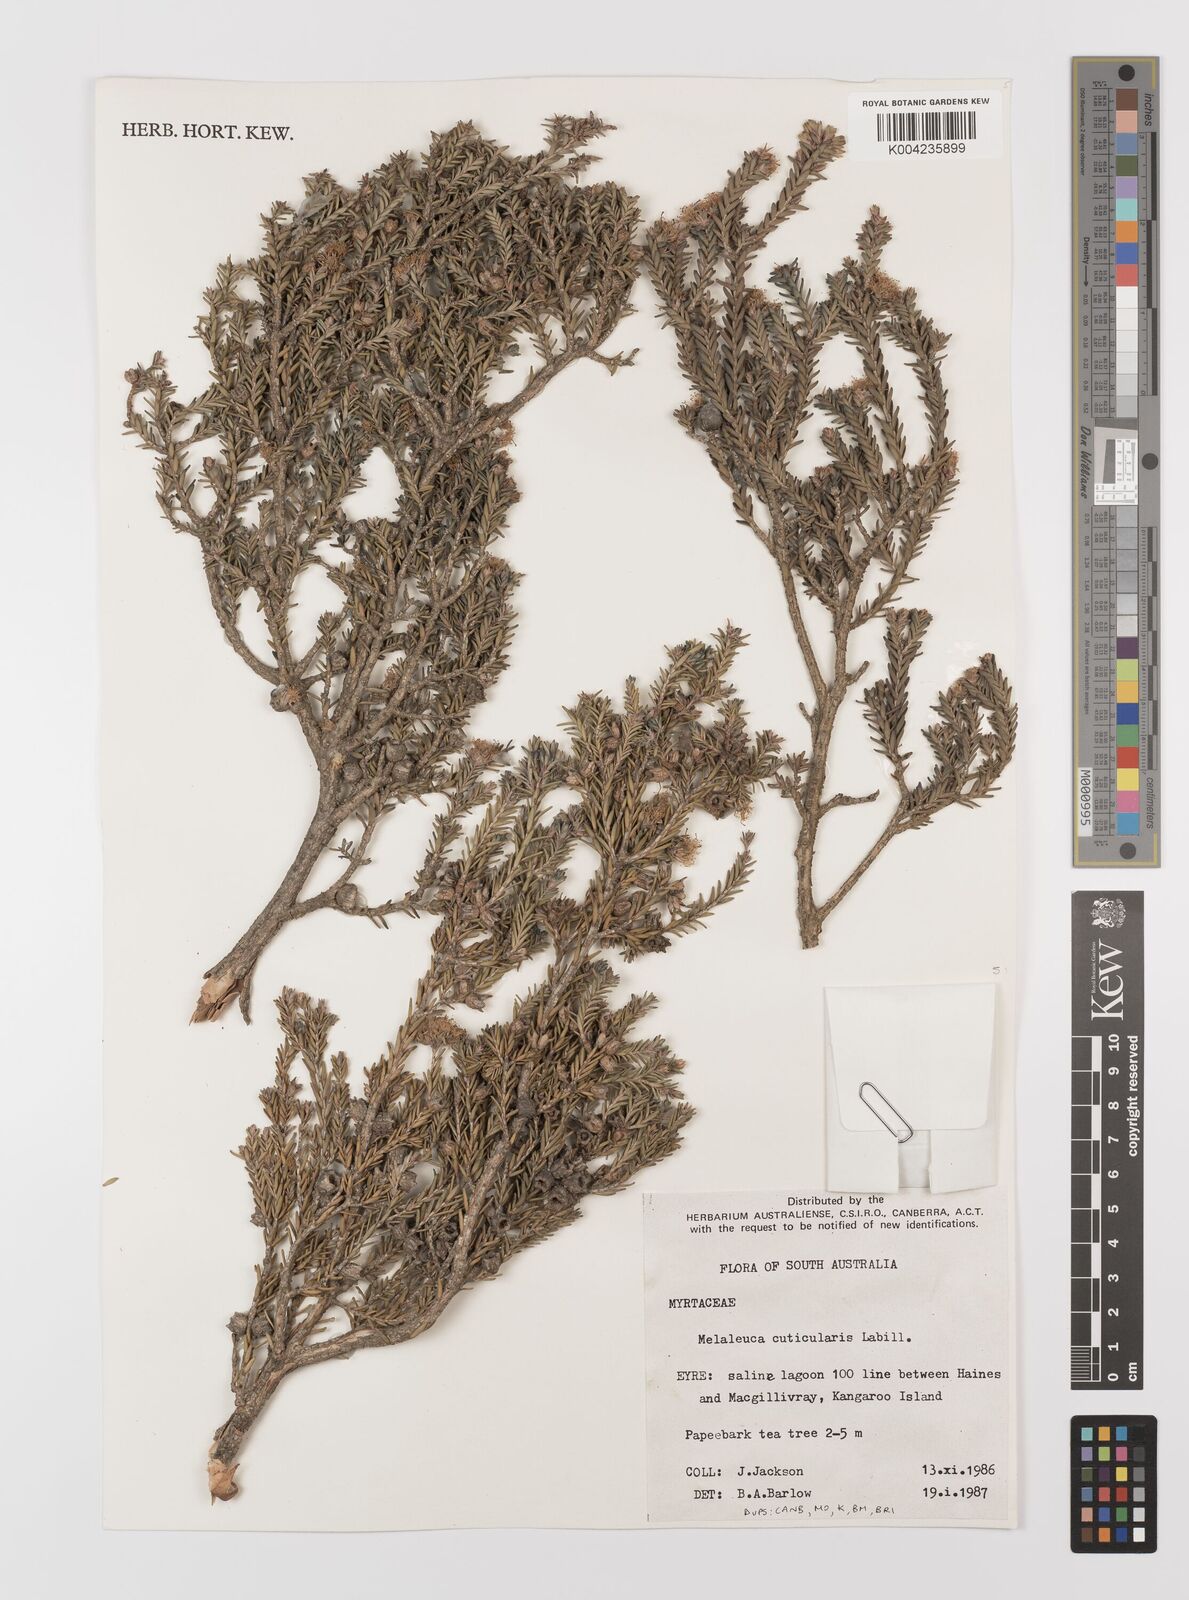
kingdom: Plantae
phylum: Tracheophyta
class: Magnoliopsida
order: Myrtales
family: Myrtaceae
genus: Melaleuca
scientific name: Melaleuca cuticularis
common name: Saltwater paperbark
